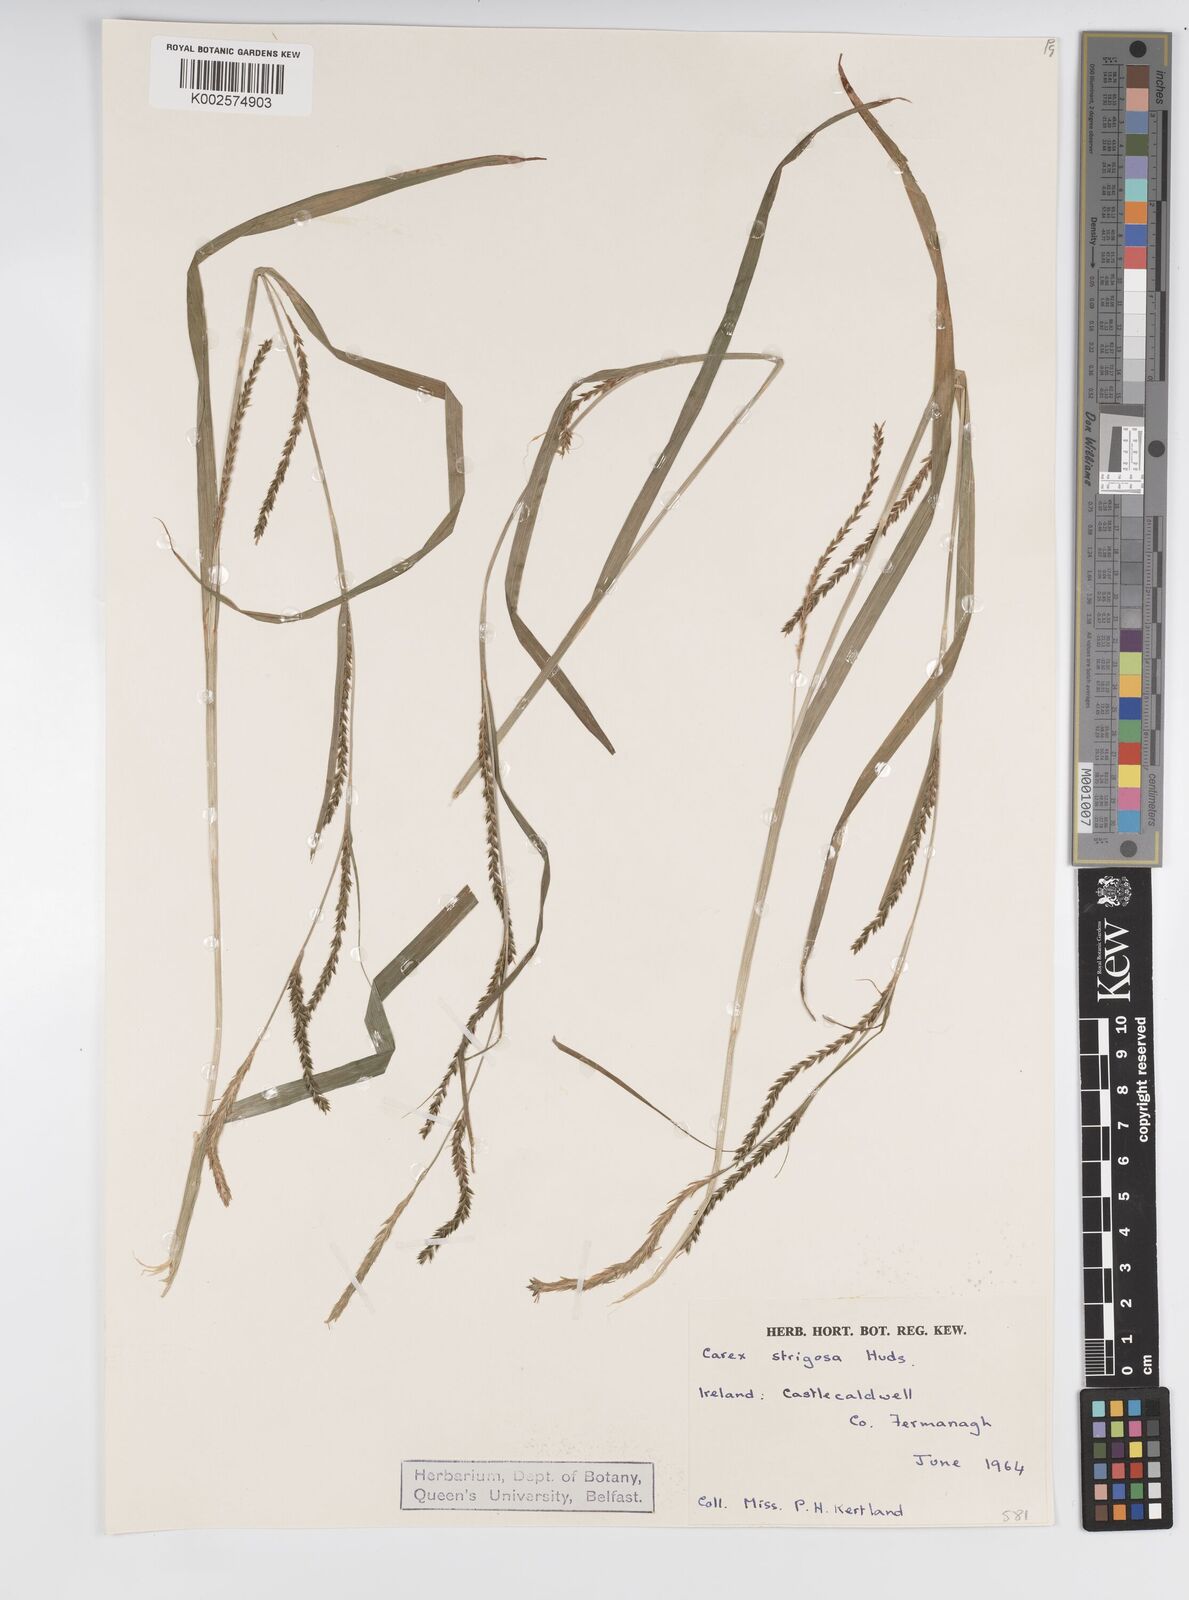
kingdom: Plantae
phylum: Tracheophyta
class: Liliopsida
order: Poales
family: Cyperaceae
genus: Carex
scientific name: Carex strigosa
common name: Thin-spiked wood-sedge
